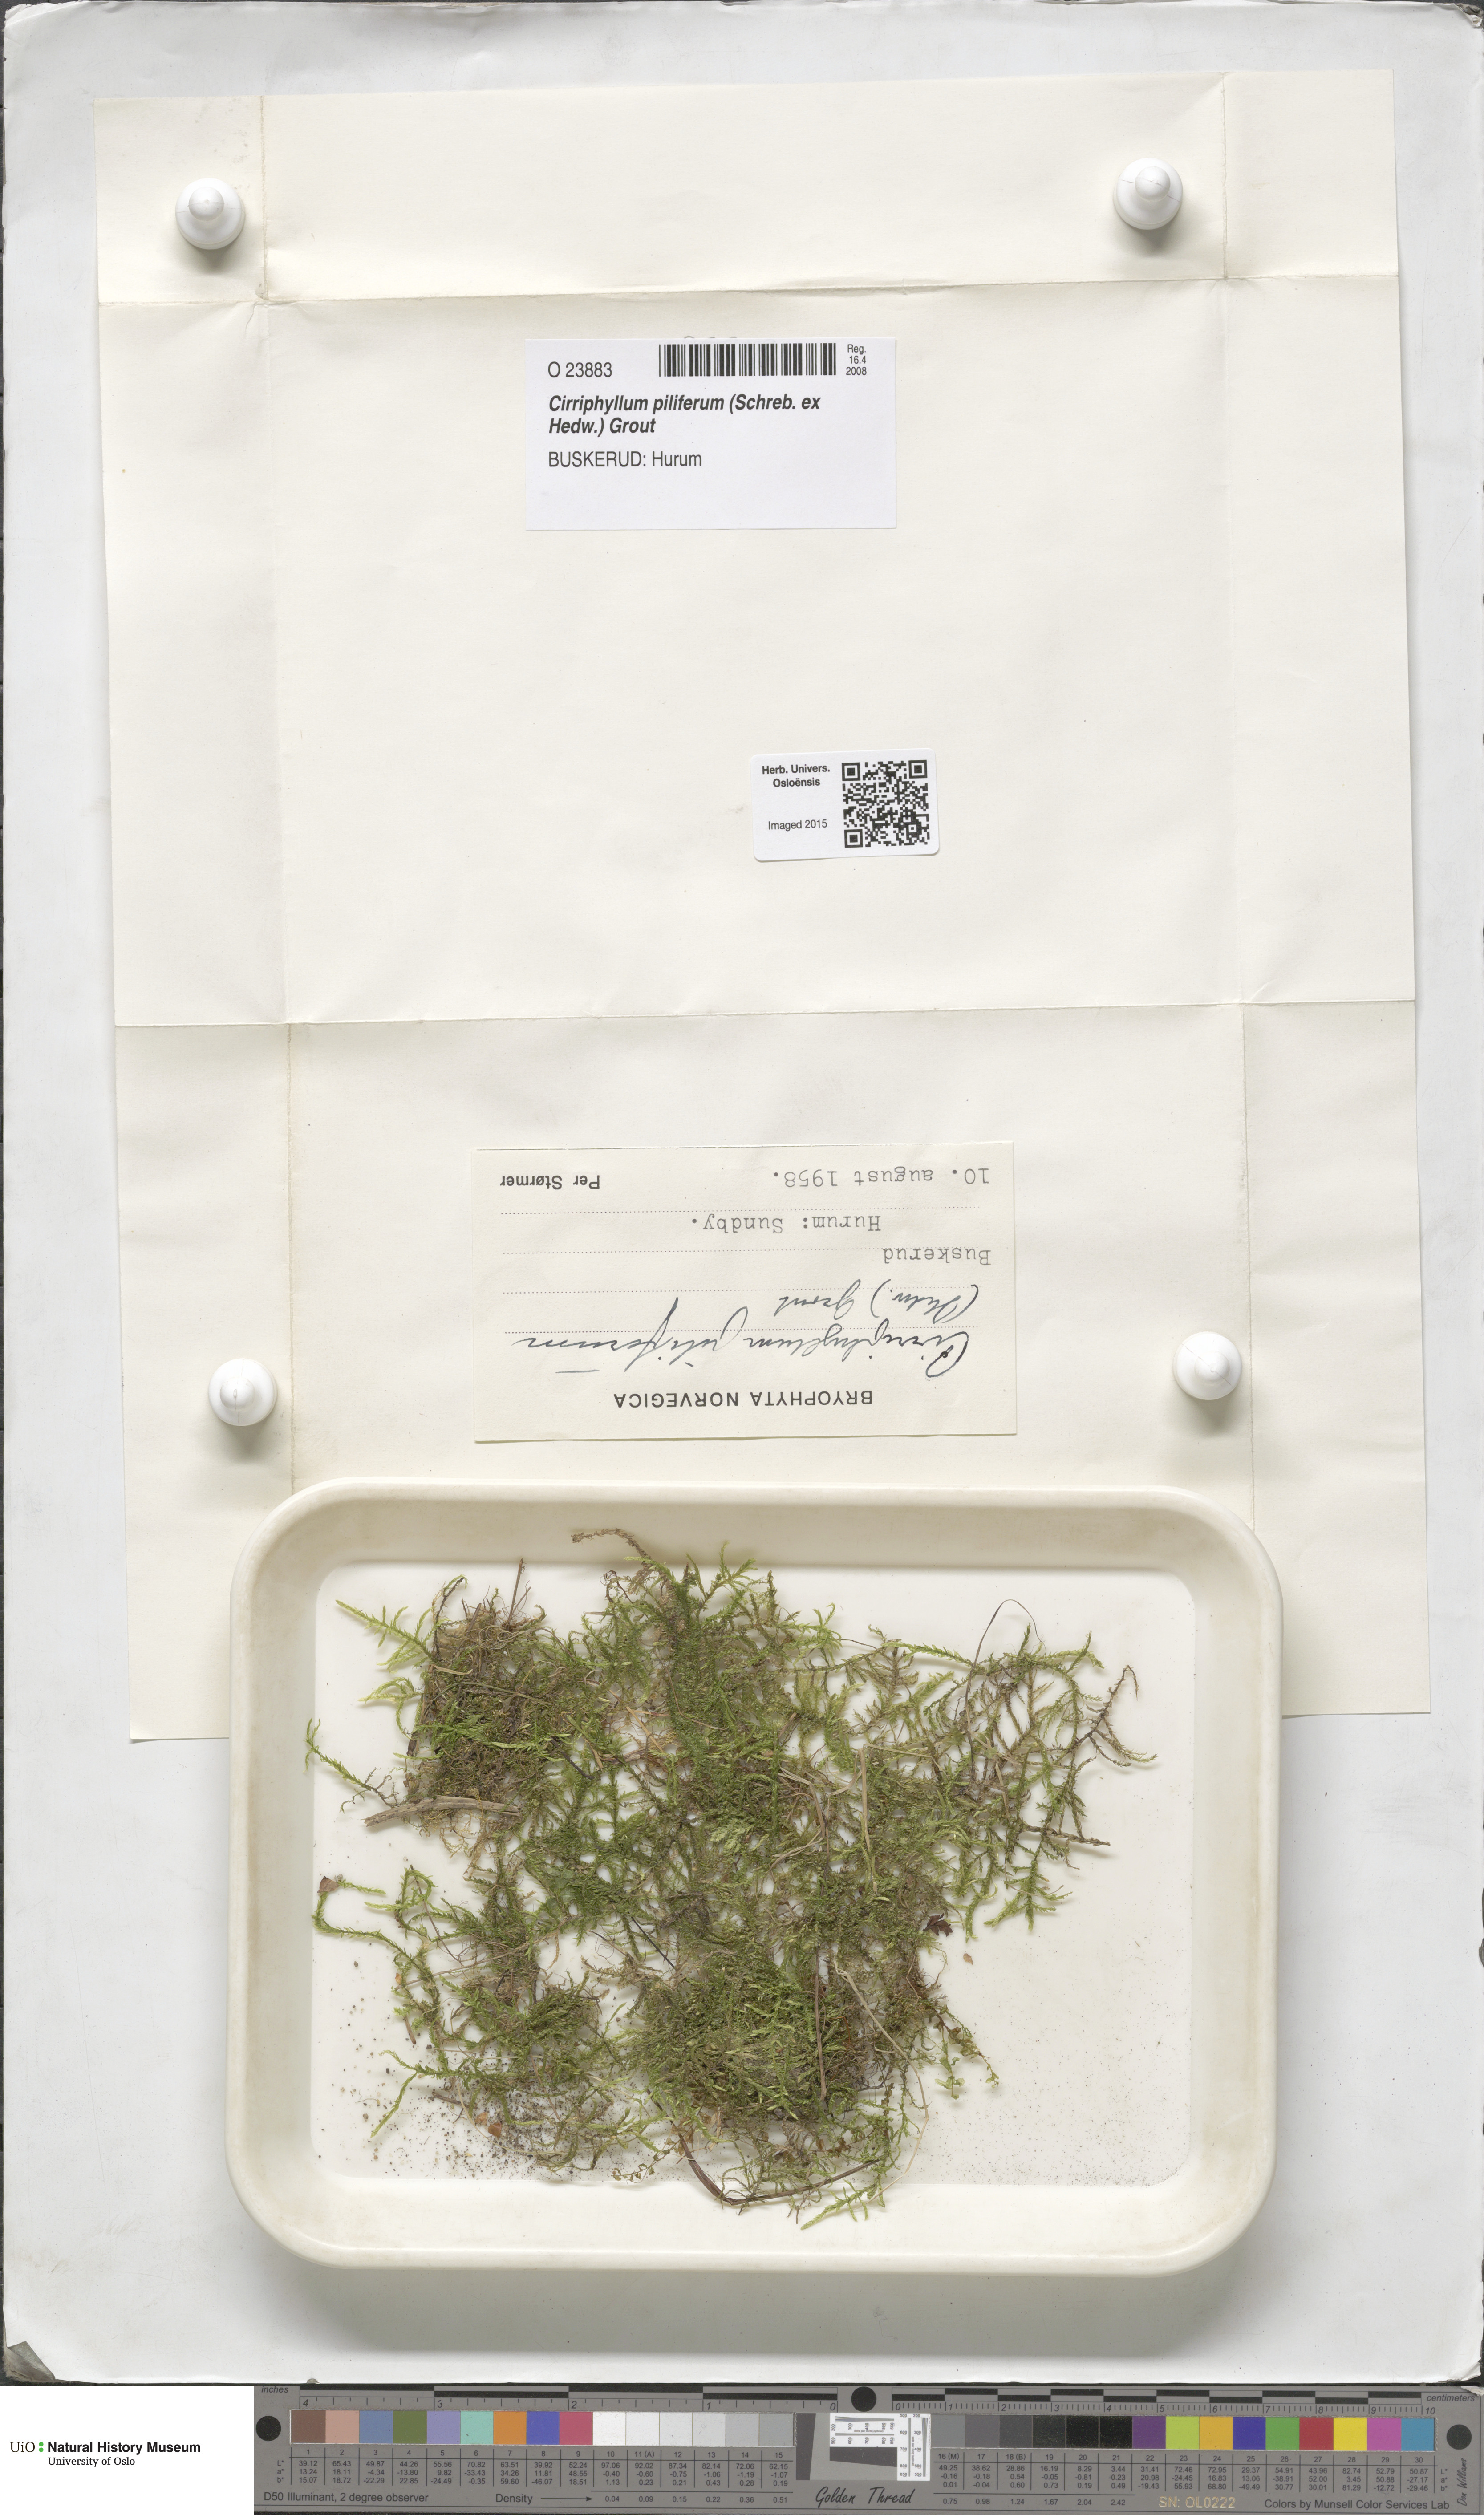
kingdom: Plantae
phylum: Bryophyta
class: Bryopsida
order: Hypnales
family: Brachytheciaceae
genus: Cirriphyllum
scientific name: Cirriphyllum piliferum
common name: Hair-pointed moss
